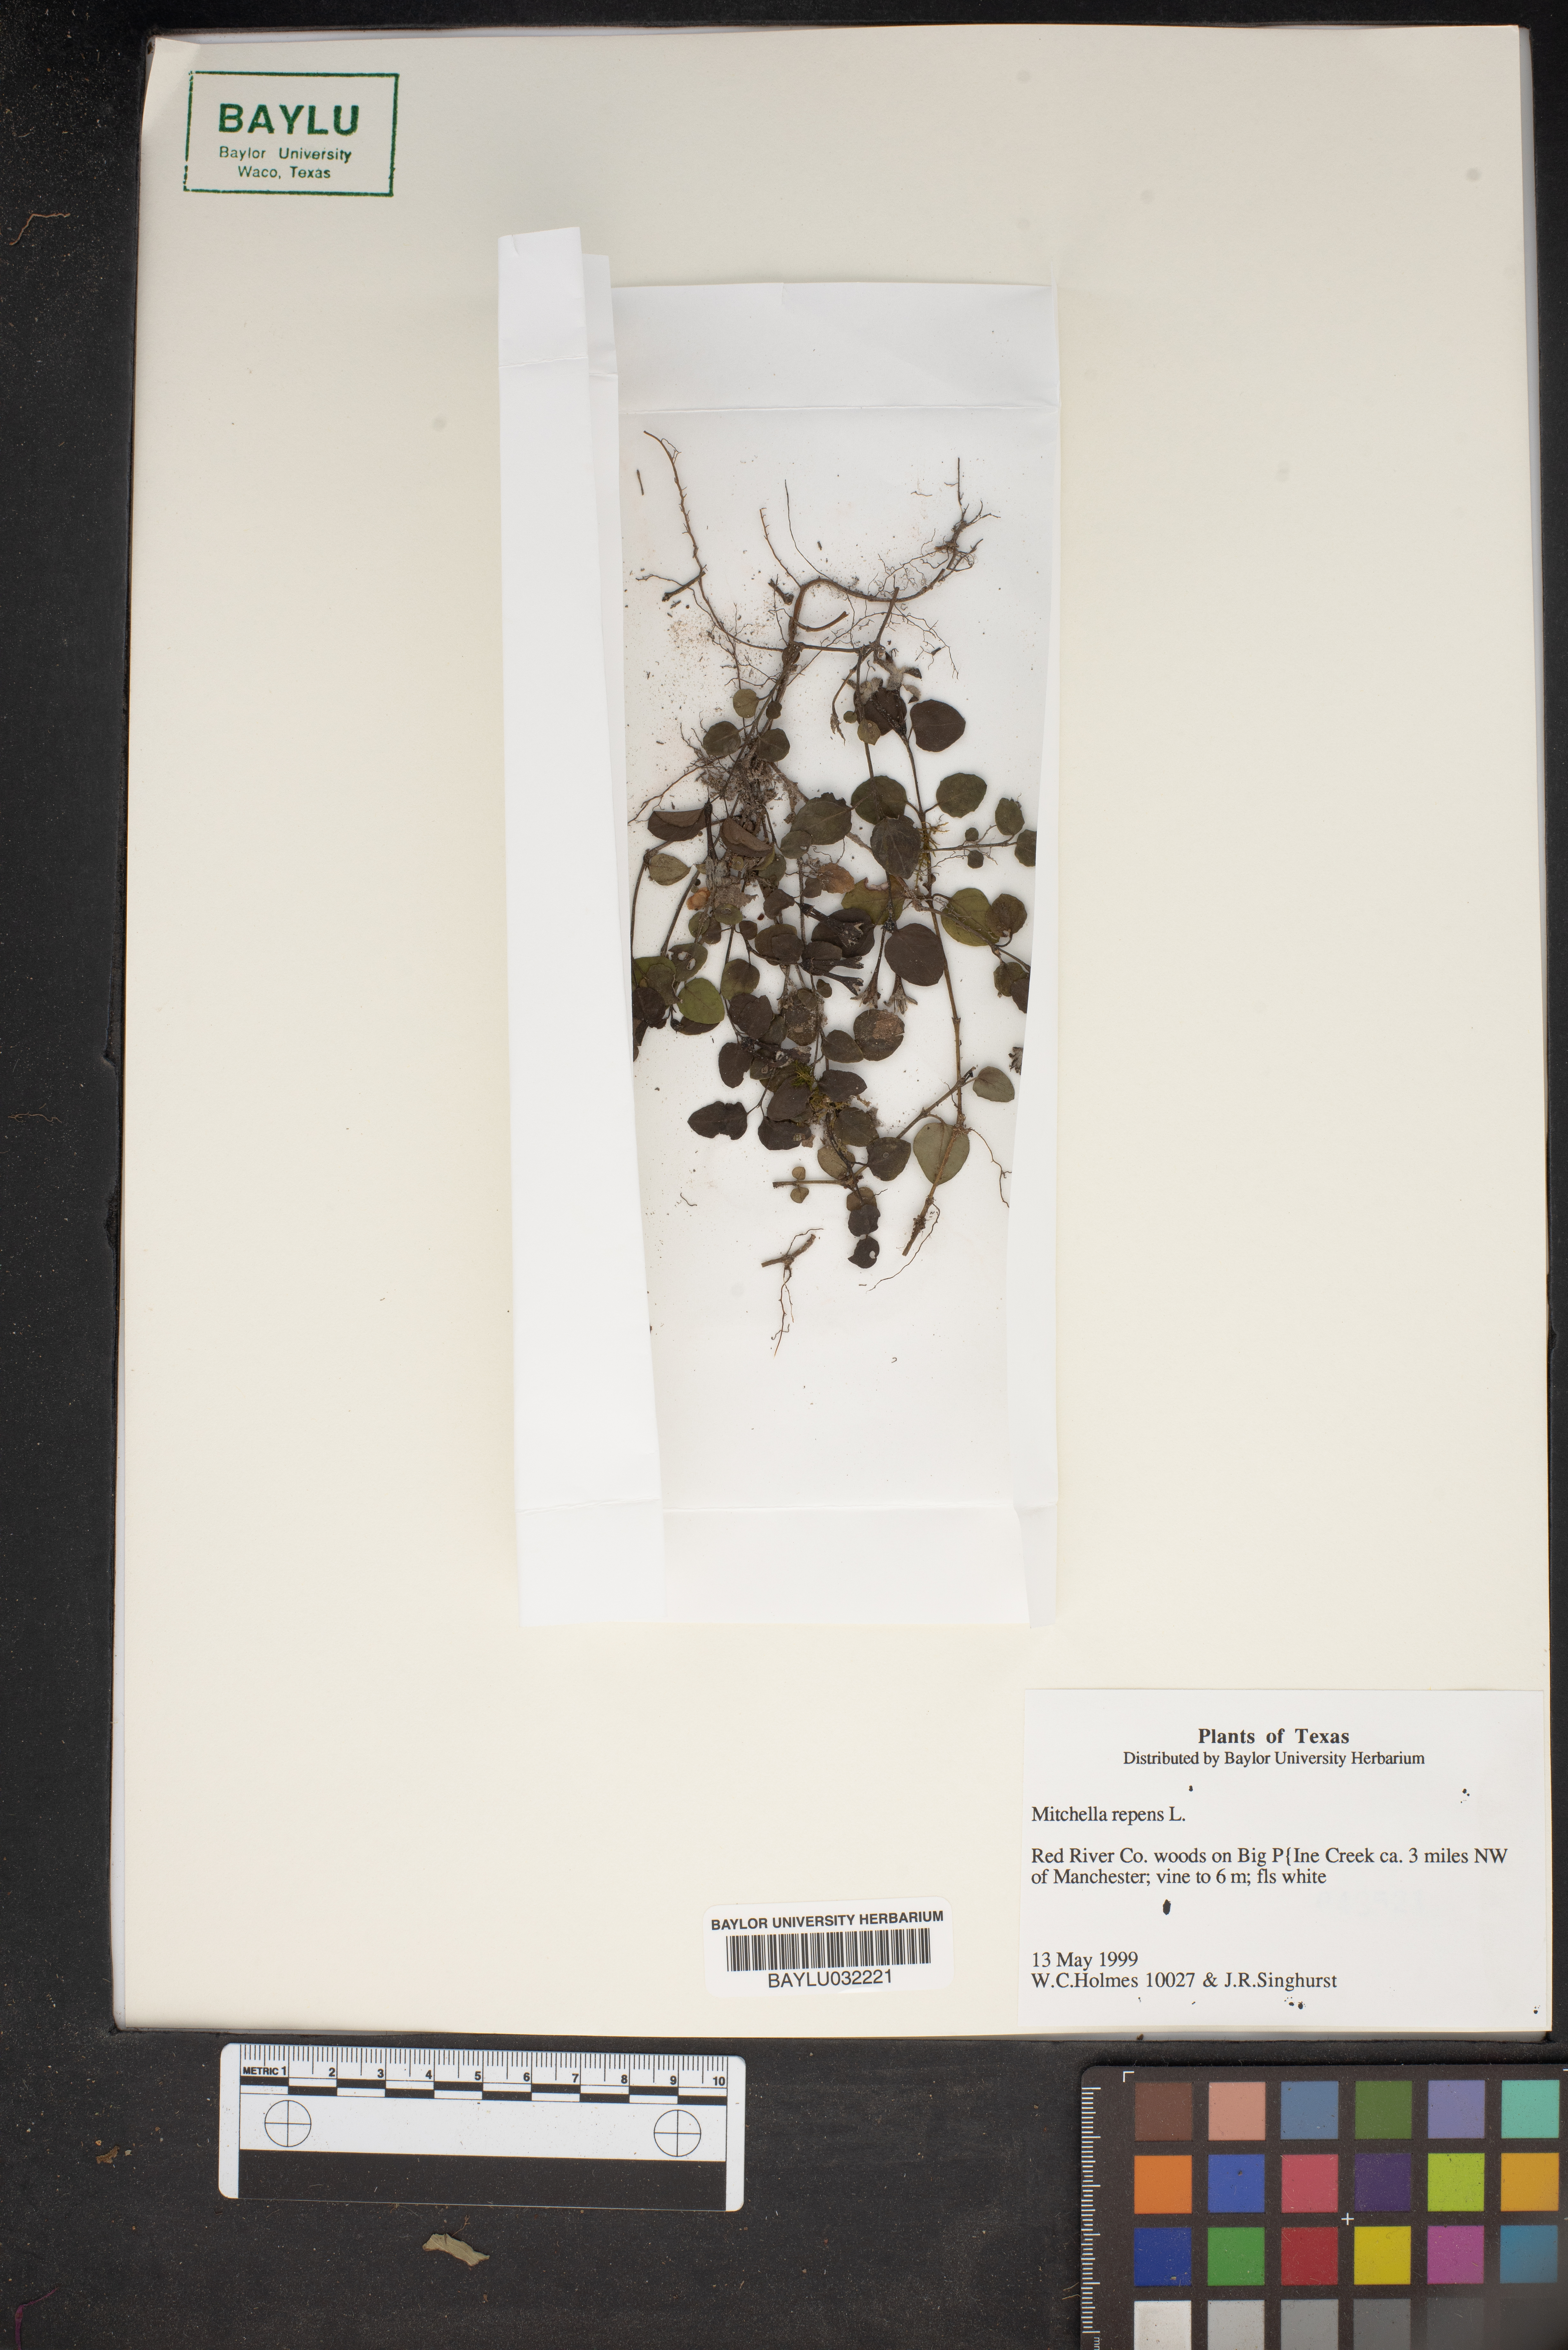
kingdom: Plantae
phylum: Tracheophyta
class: Magnoliopsida
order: Gentianales
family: Rubiaceae
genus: Mitchella
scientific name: Mitchella repens
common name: Partridge-berry
